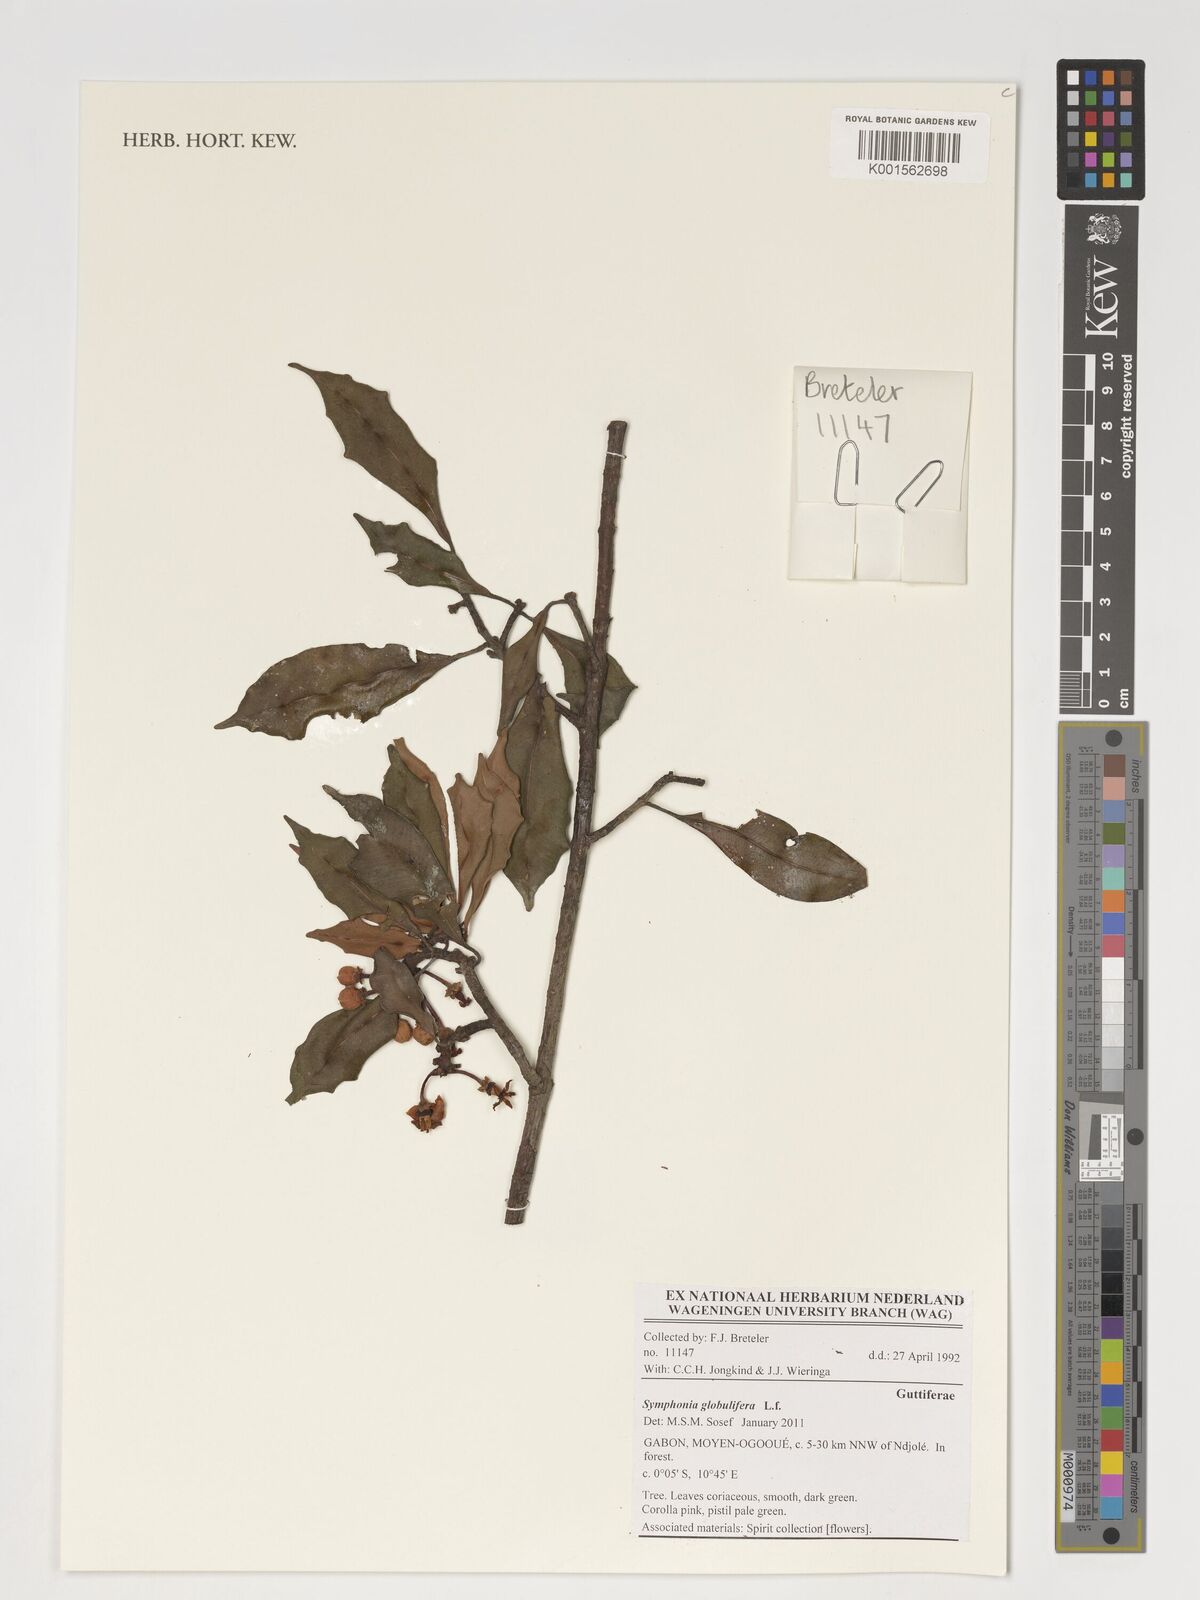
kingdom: Plantae
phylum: Tracheophyta
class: Magnoliopsida
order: Malpighiales
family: Clusiaceae
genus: Symphonia
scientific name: Symphonia globulifera
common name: Boarwood
